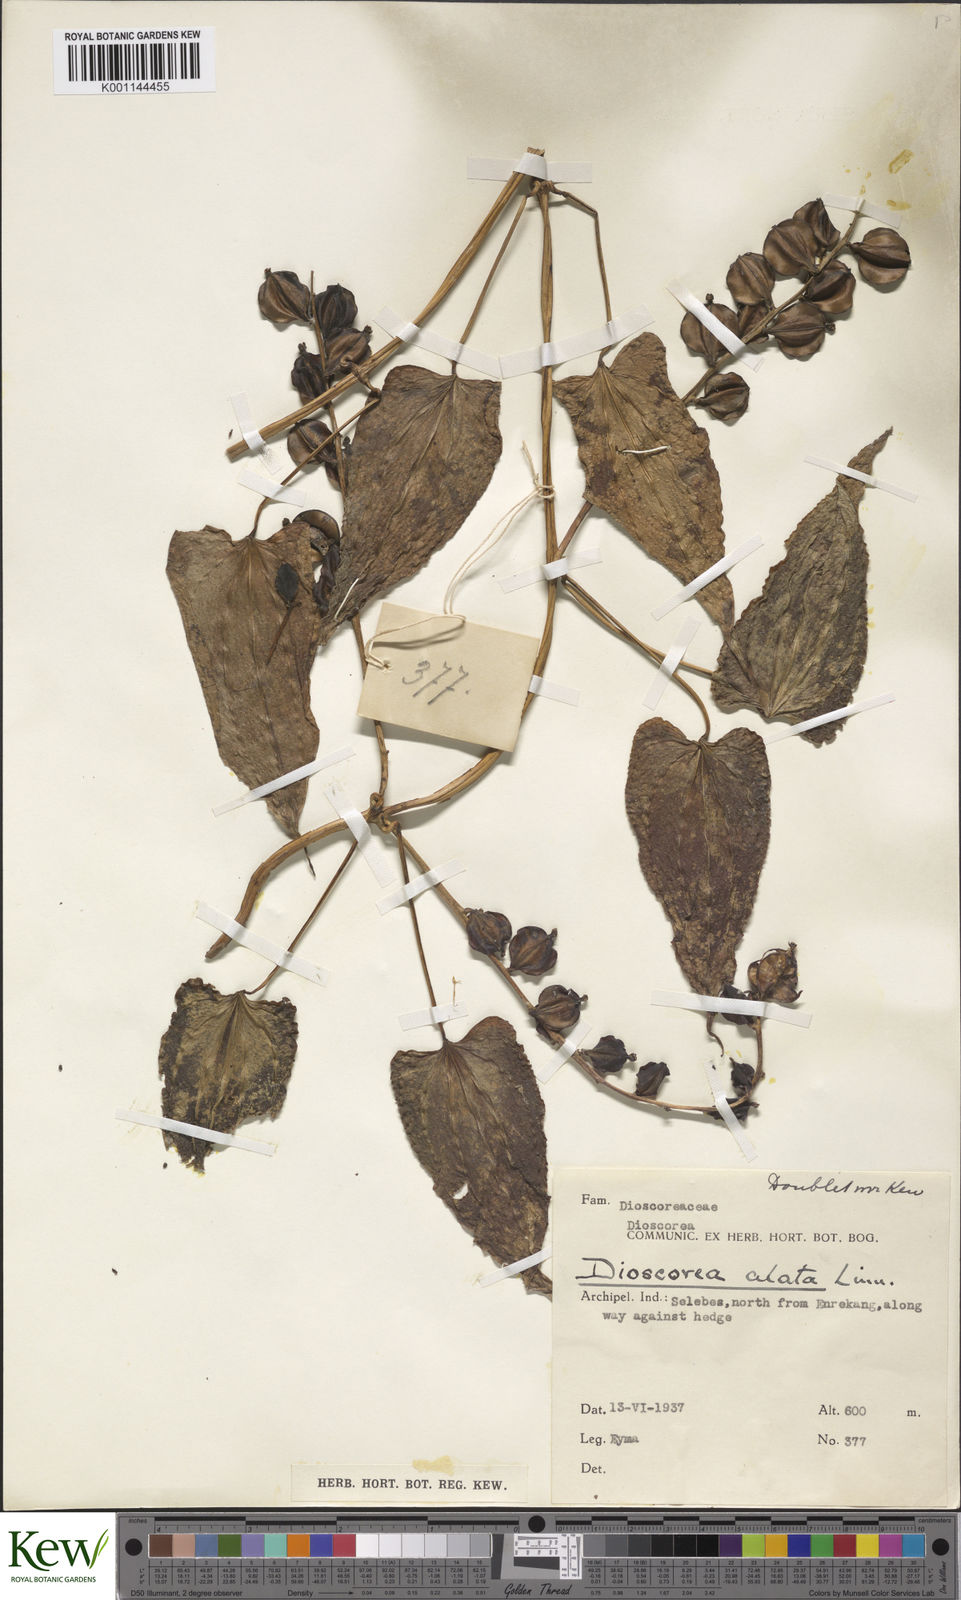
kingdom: Plantae
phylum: Tracheophyta
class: Liliopsida
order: Dioscoreales
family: Dioscoreaceae
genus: Dioscorea
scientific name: Dioscorea alata
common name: Water yam
